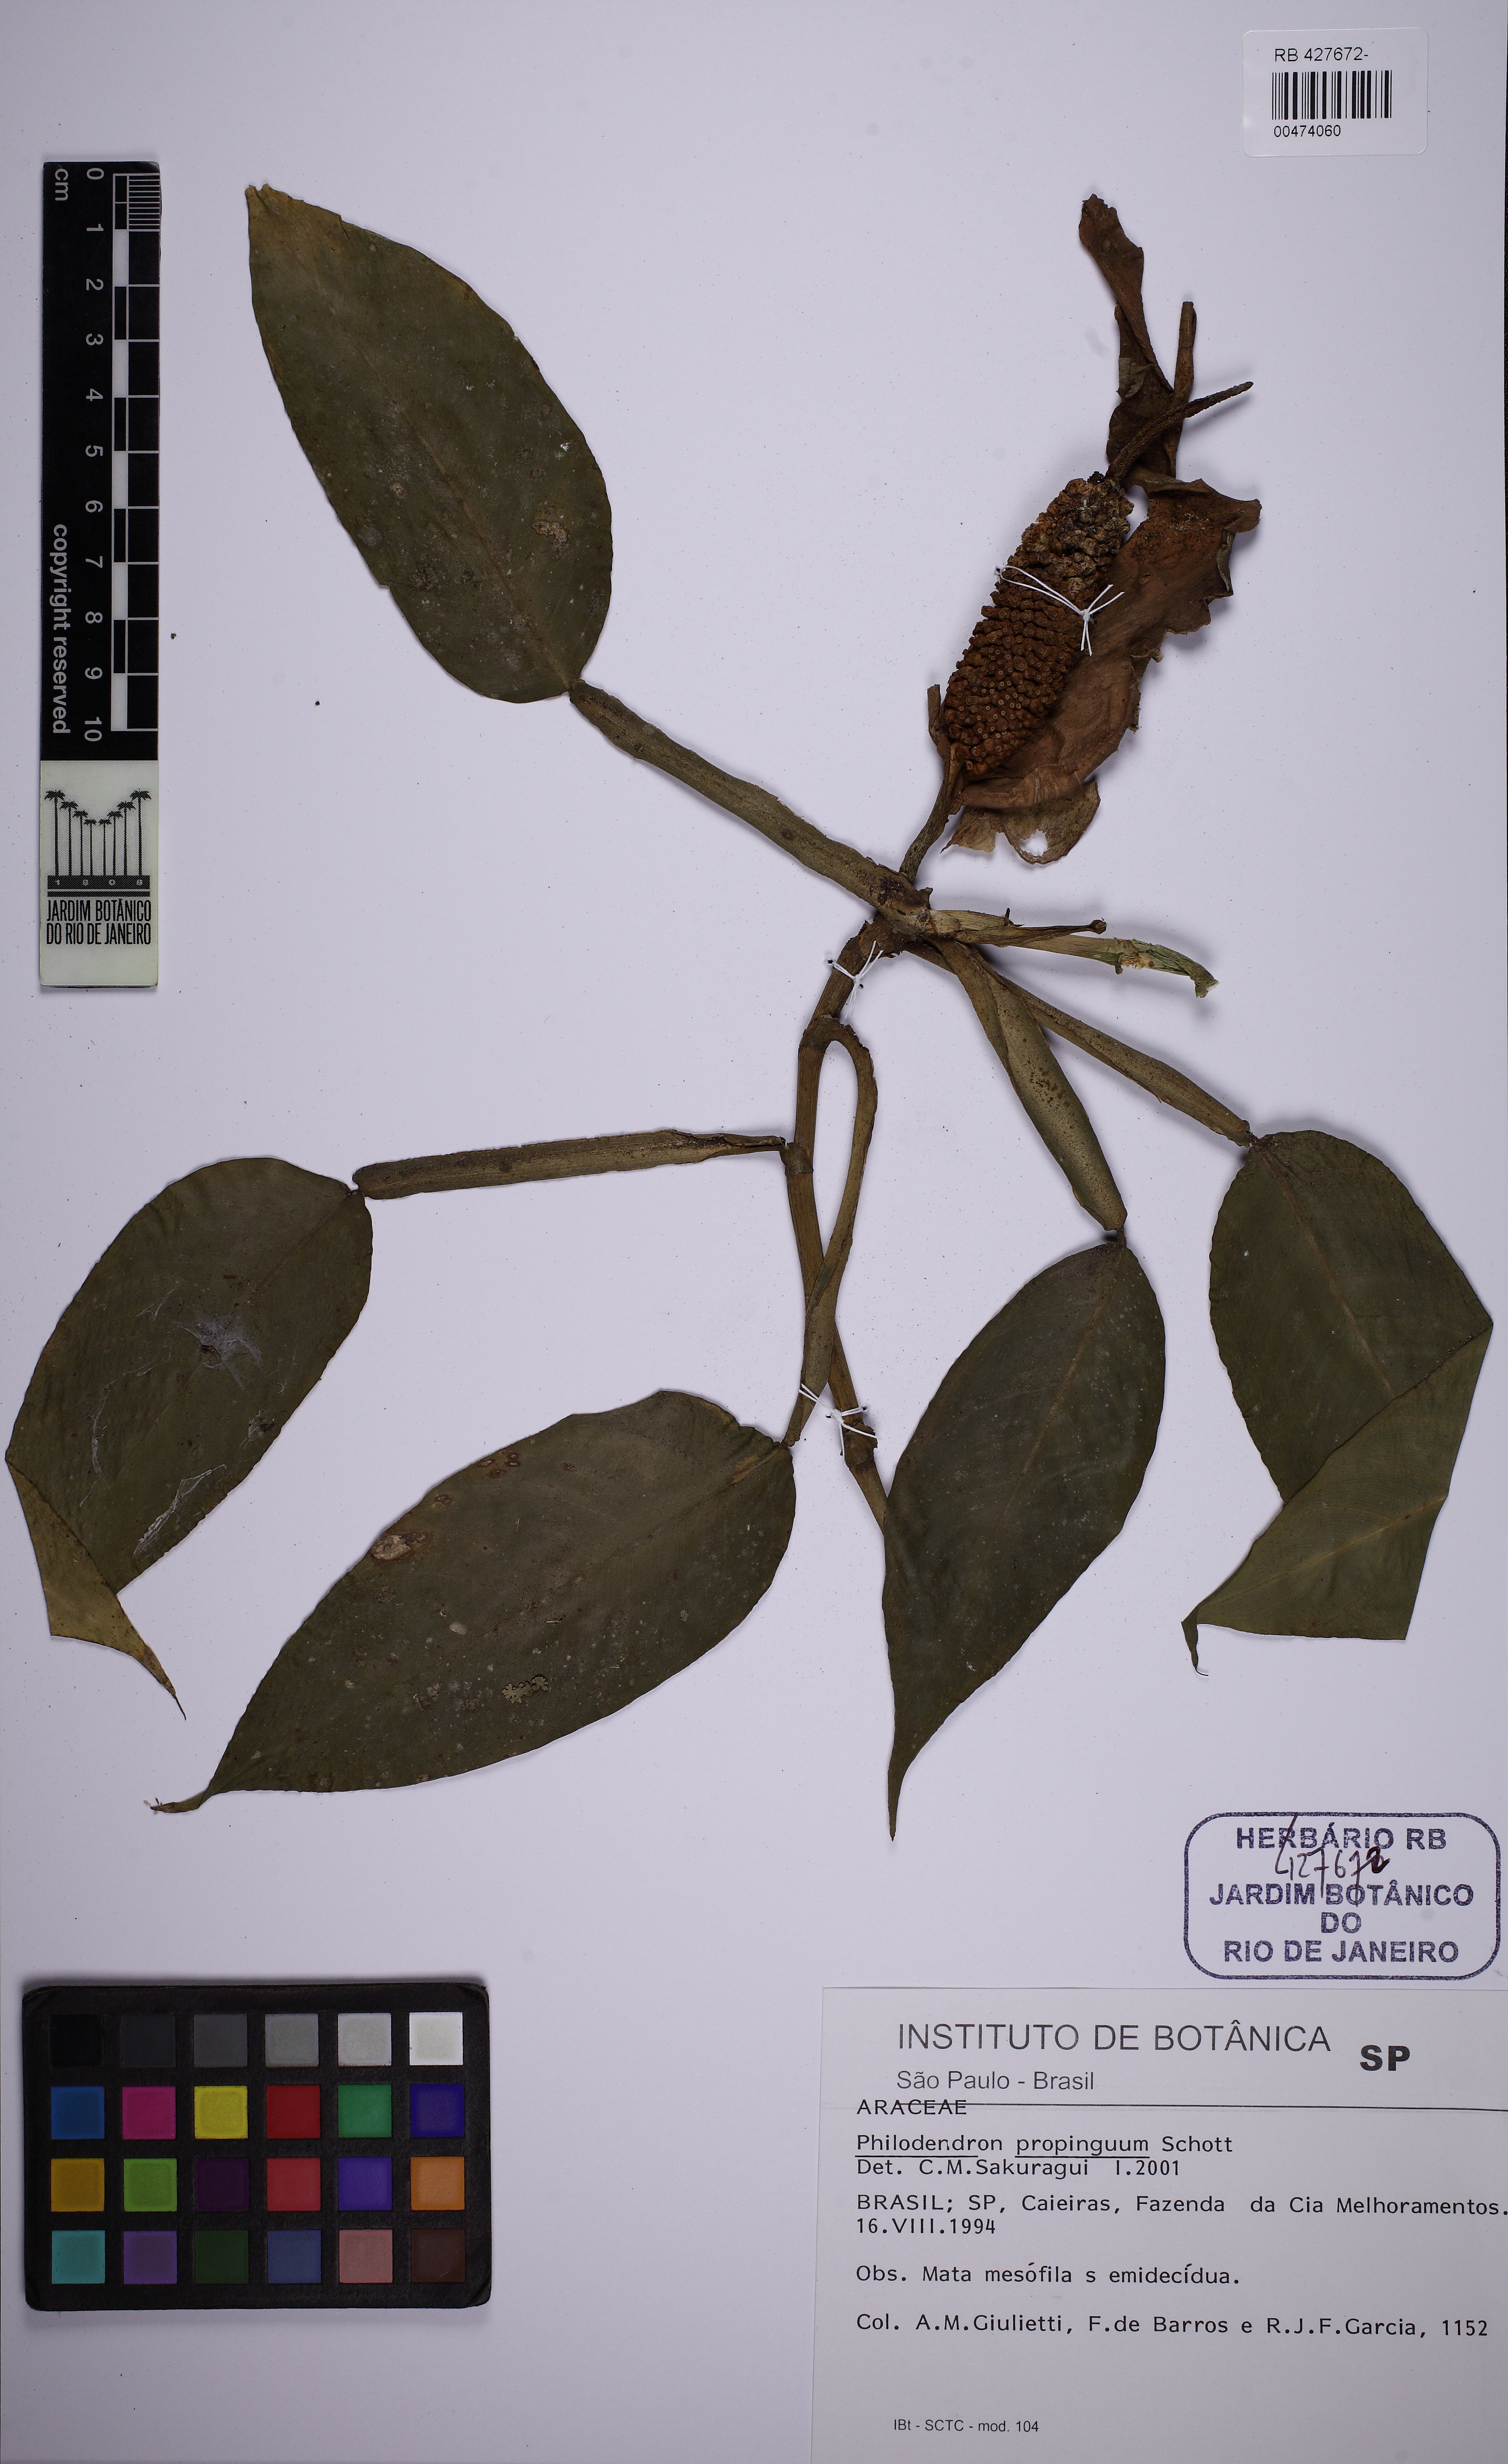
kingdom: Plantae
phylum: Tracheophyta
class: Liliopsida
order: Alismatales
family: Araceae
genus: Philodendron
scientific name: Philodendron propinquum
